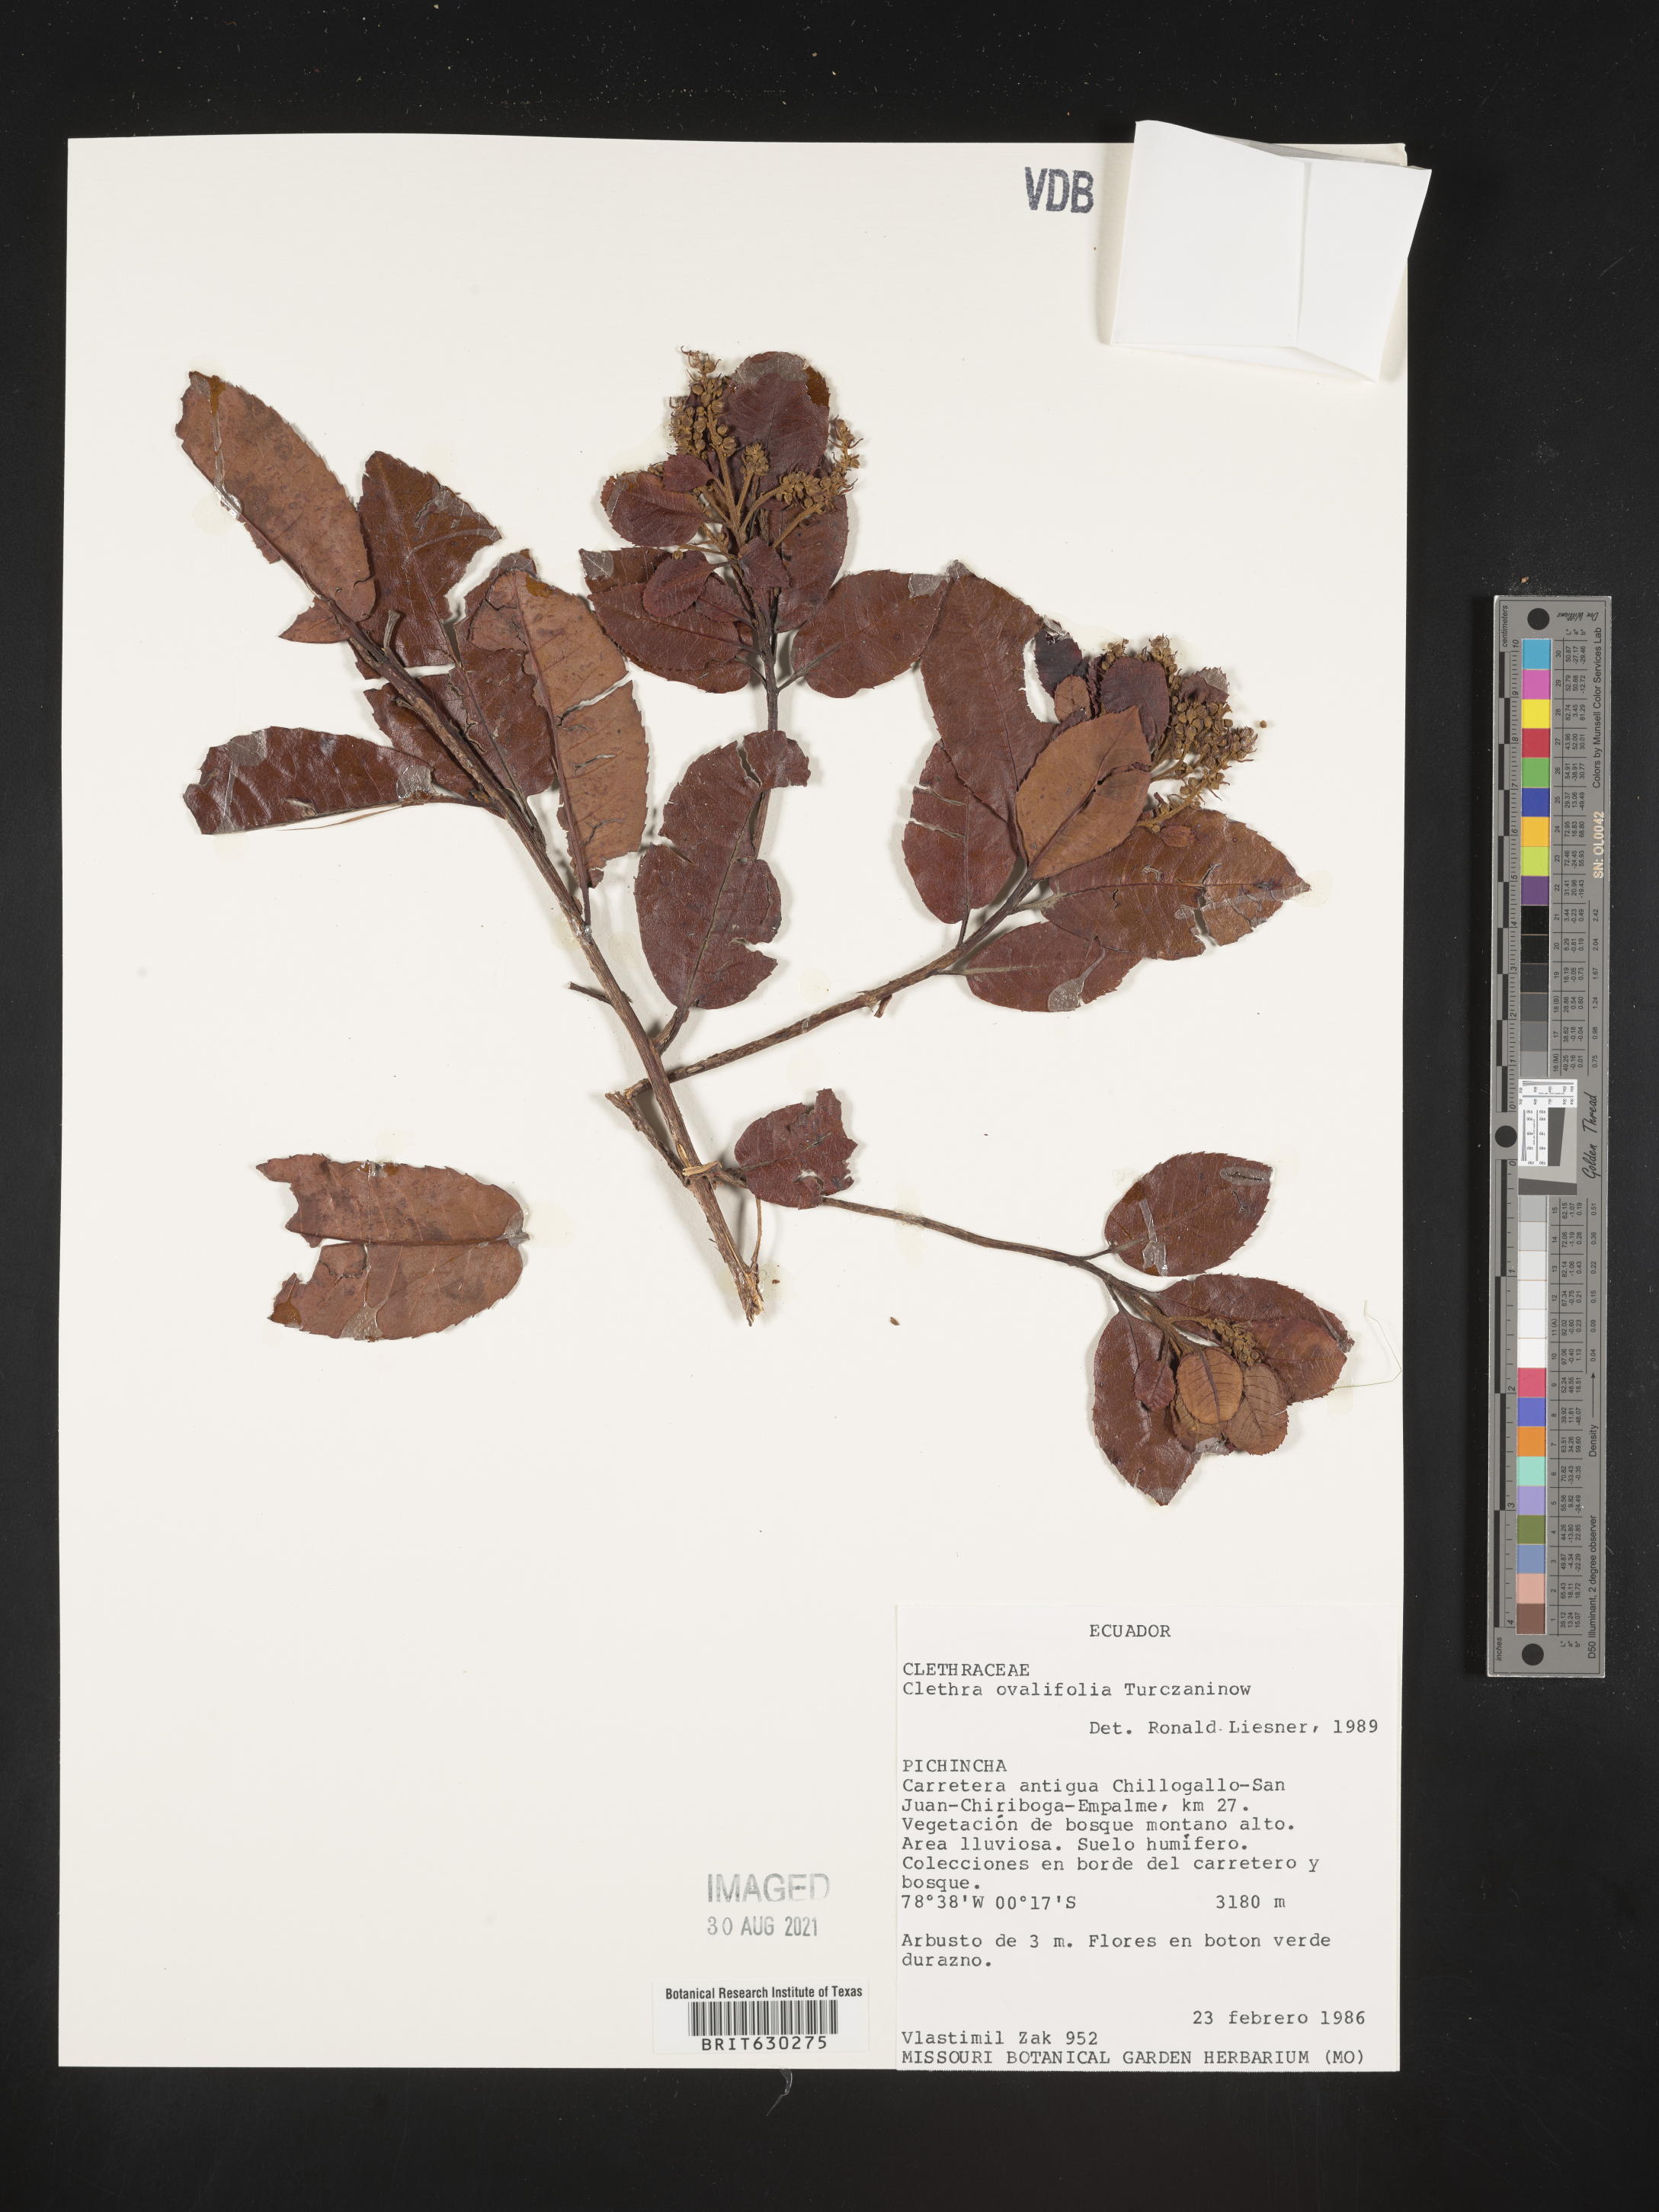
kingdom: Plantae
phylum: Tracheophyta
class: Magnoliopsida
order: Ericales
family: Clethraceae
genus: Clethra
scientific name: Clethra ovalifolia
